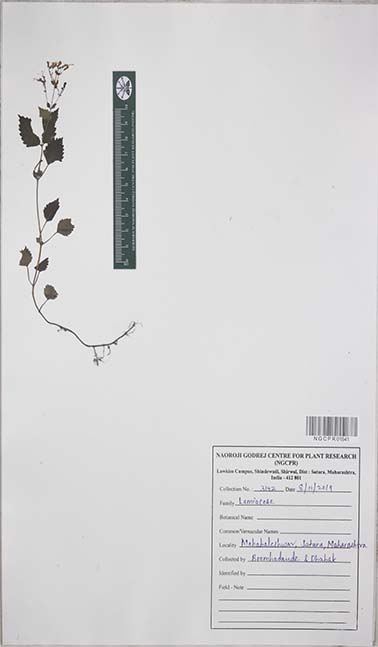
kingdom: Plantae
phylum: Tracheophyta
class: Magnoliopsida
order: Lamiales
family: Lamiaceae
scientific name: Lamiaceae
